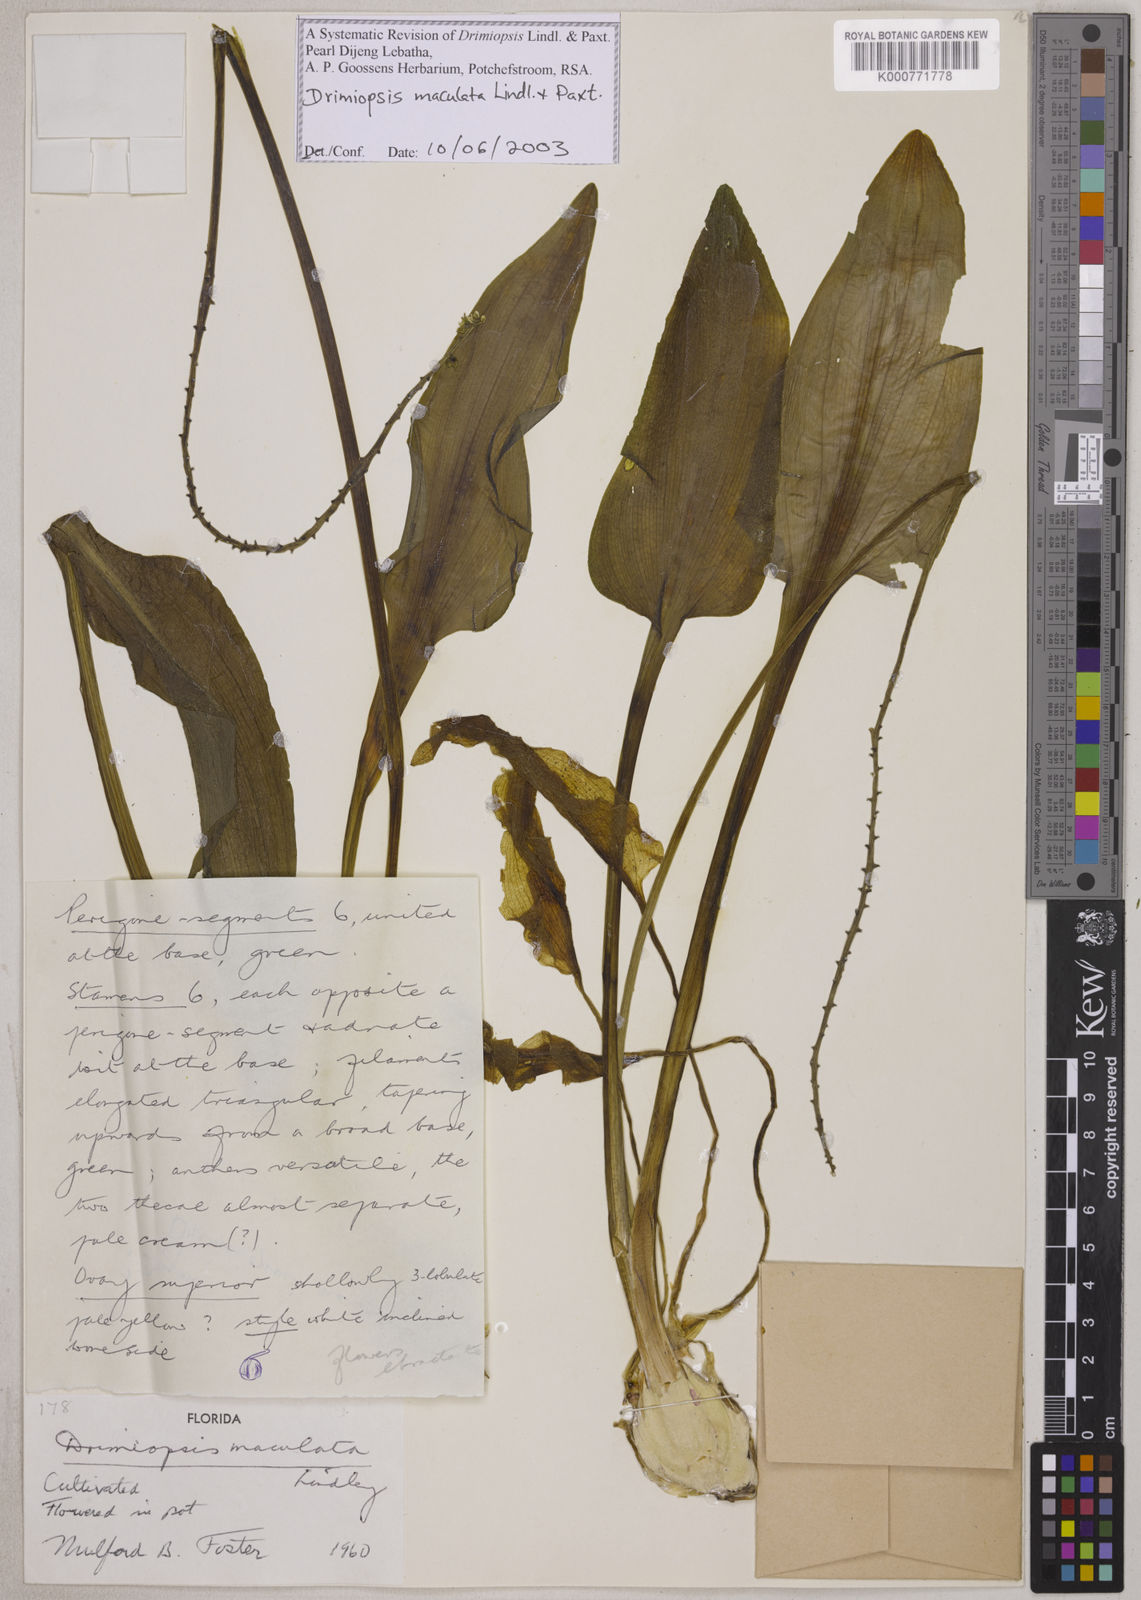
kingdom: Plantae
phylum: Tracheophyta
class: Liliopsida
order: Asparagales
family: Asparagaceae
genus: Drimiopsis
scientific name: Drimiopsis maculata
